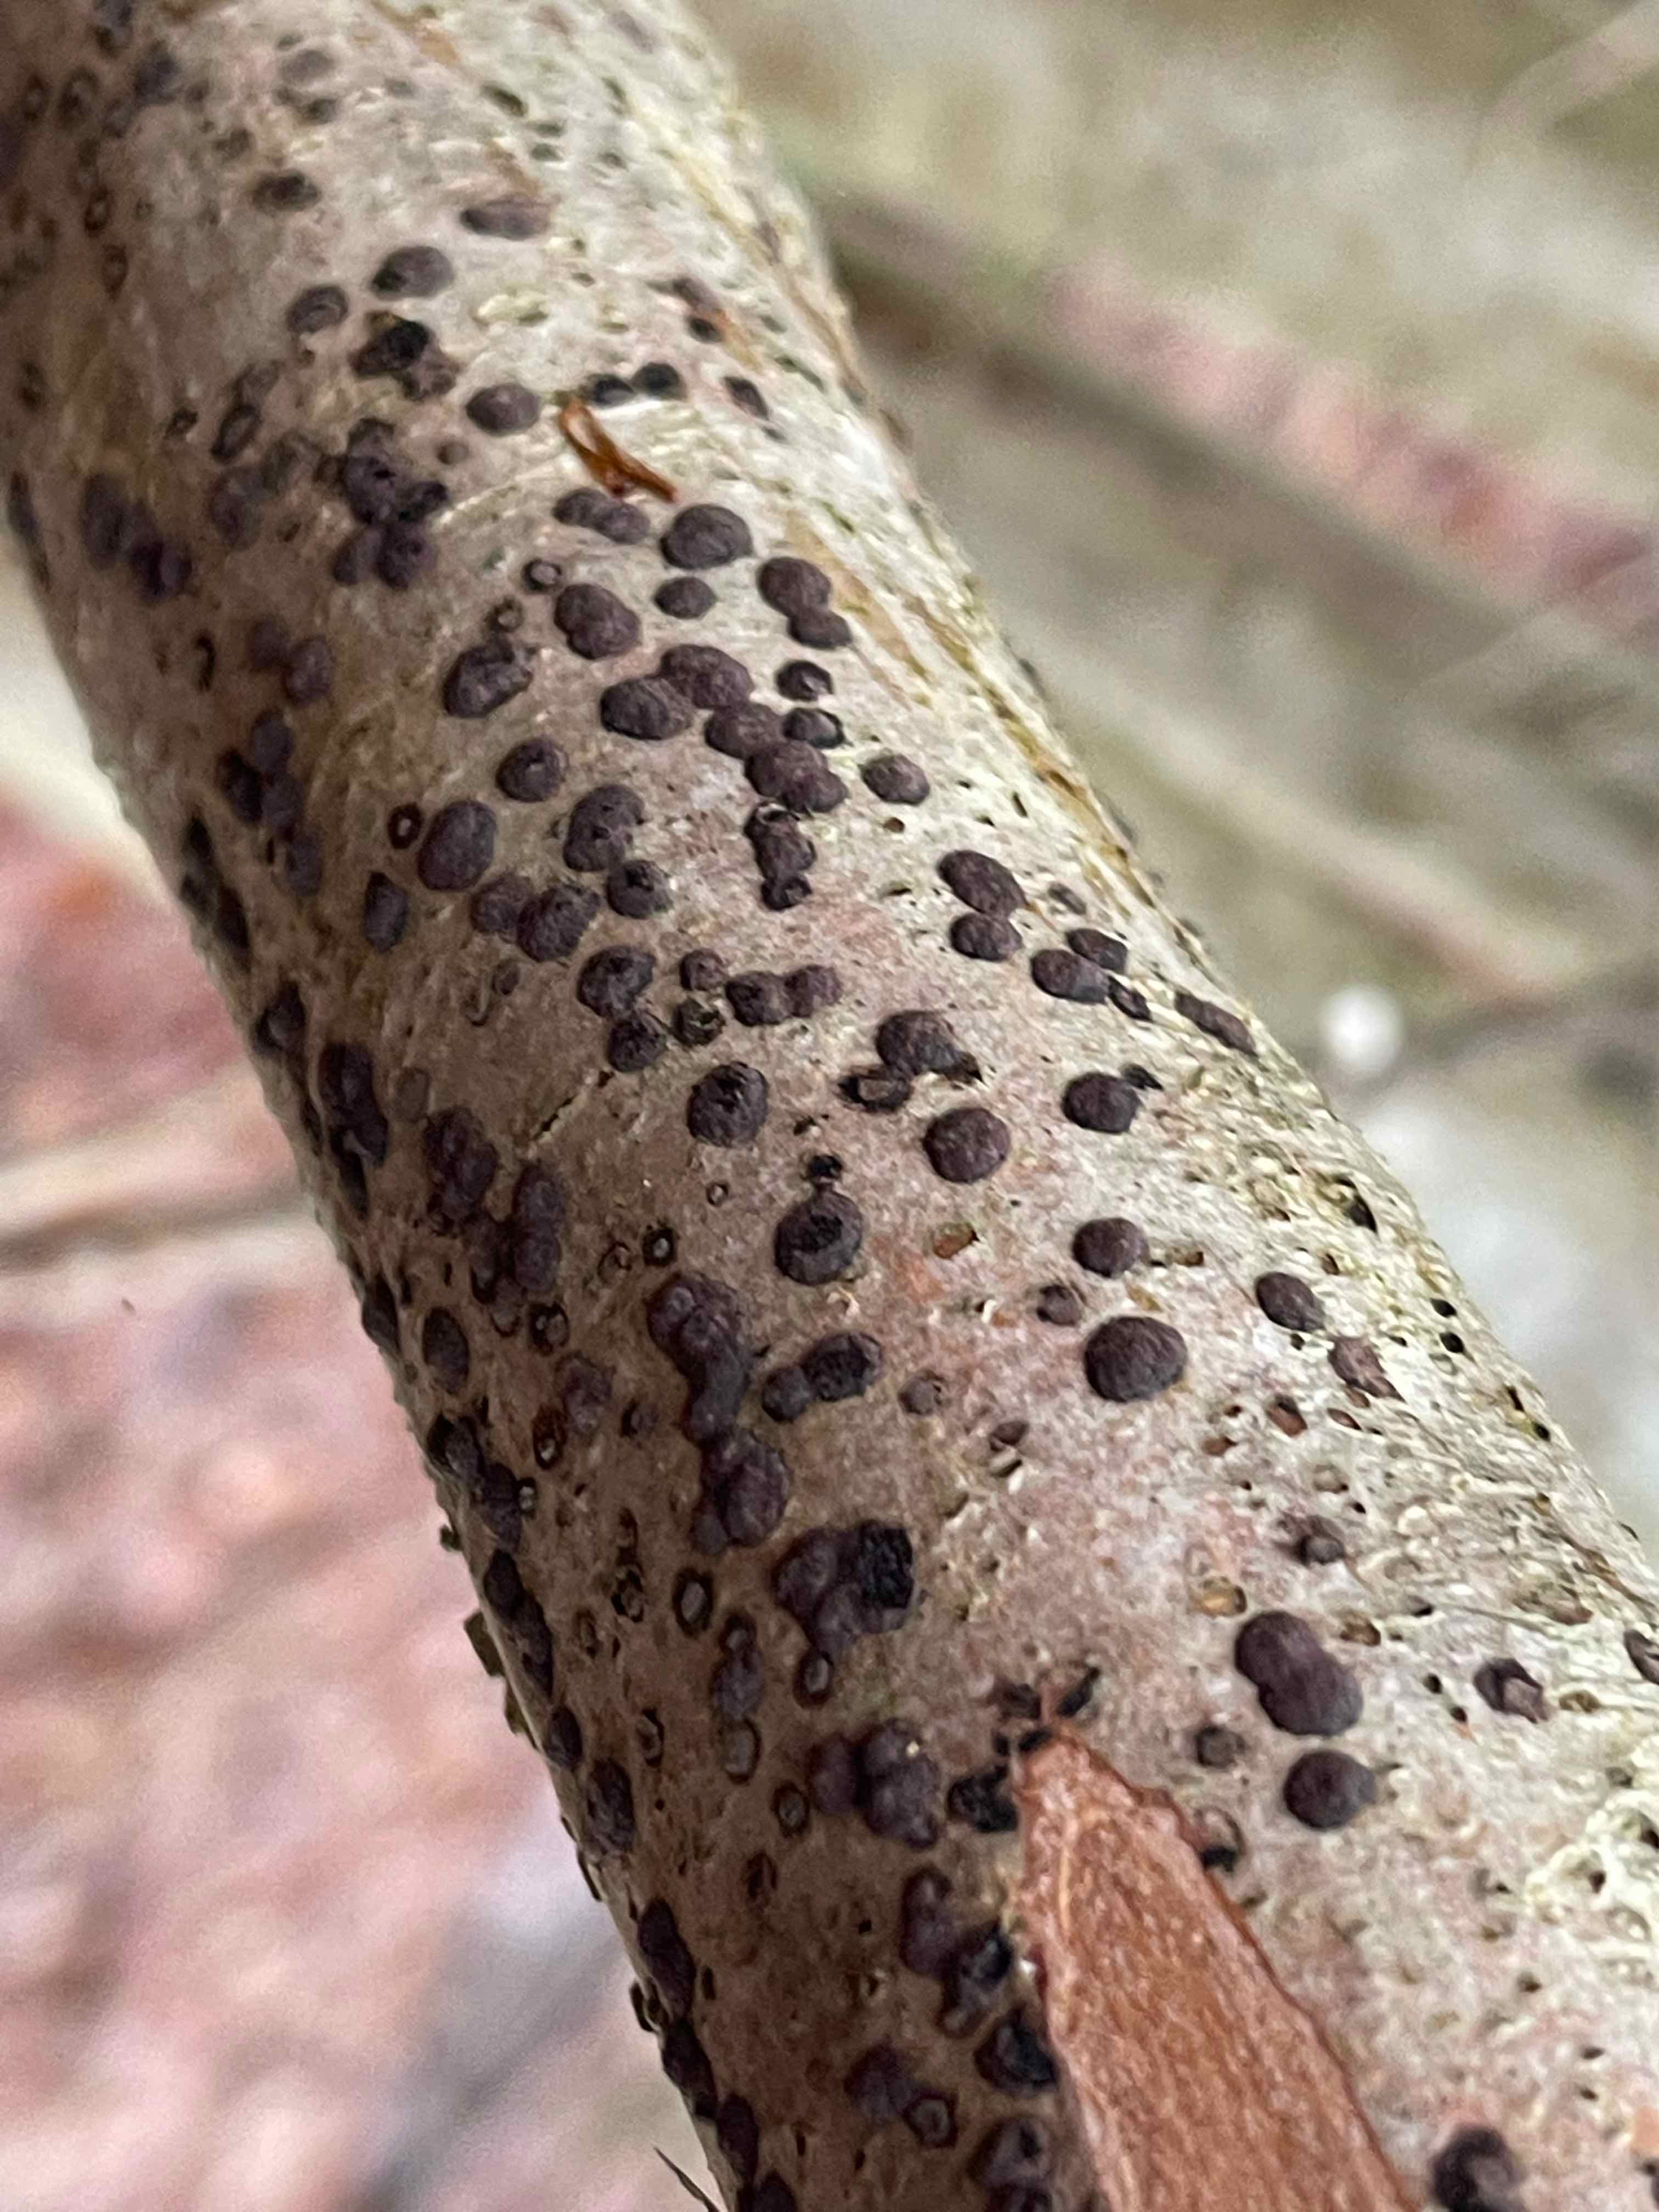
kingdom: Fungi
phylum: Ascomycota
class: Sordariomycetes
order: Xylariales
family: Hypoxylaceae
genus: Hypoxylon
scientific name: Hypoxylon fuscum
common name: kegleformet kulbær
